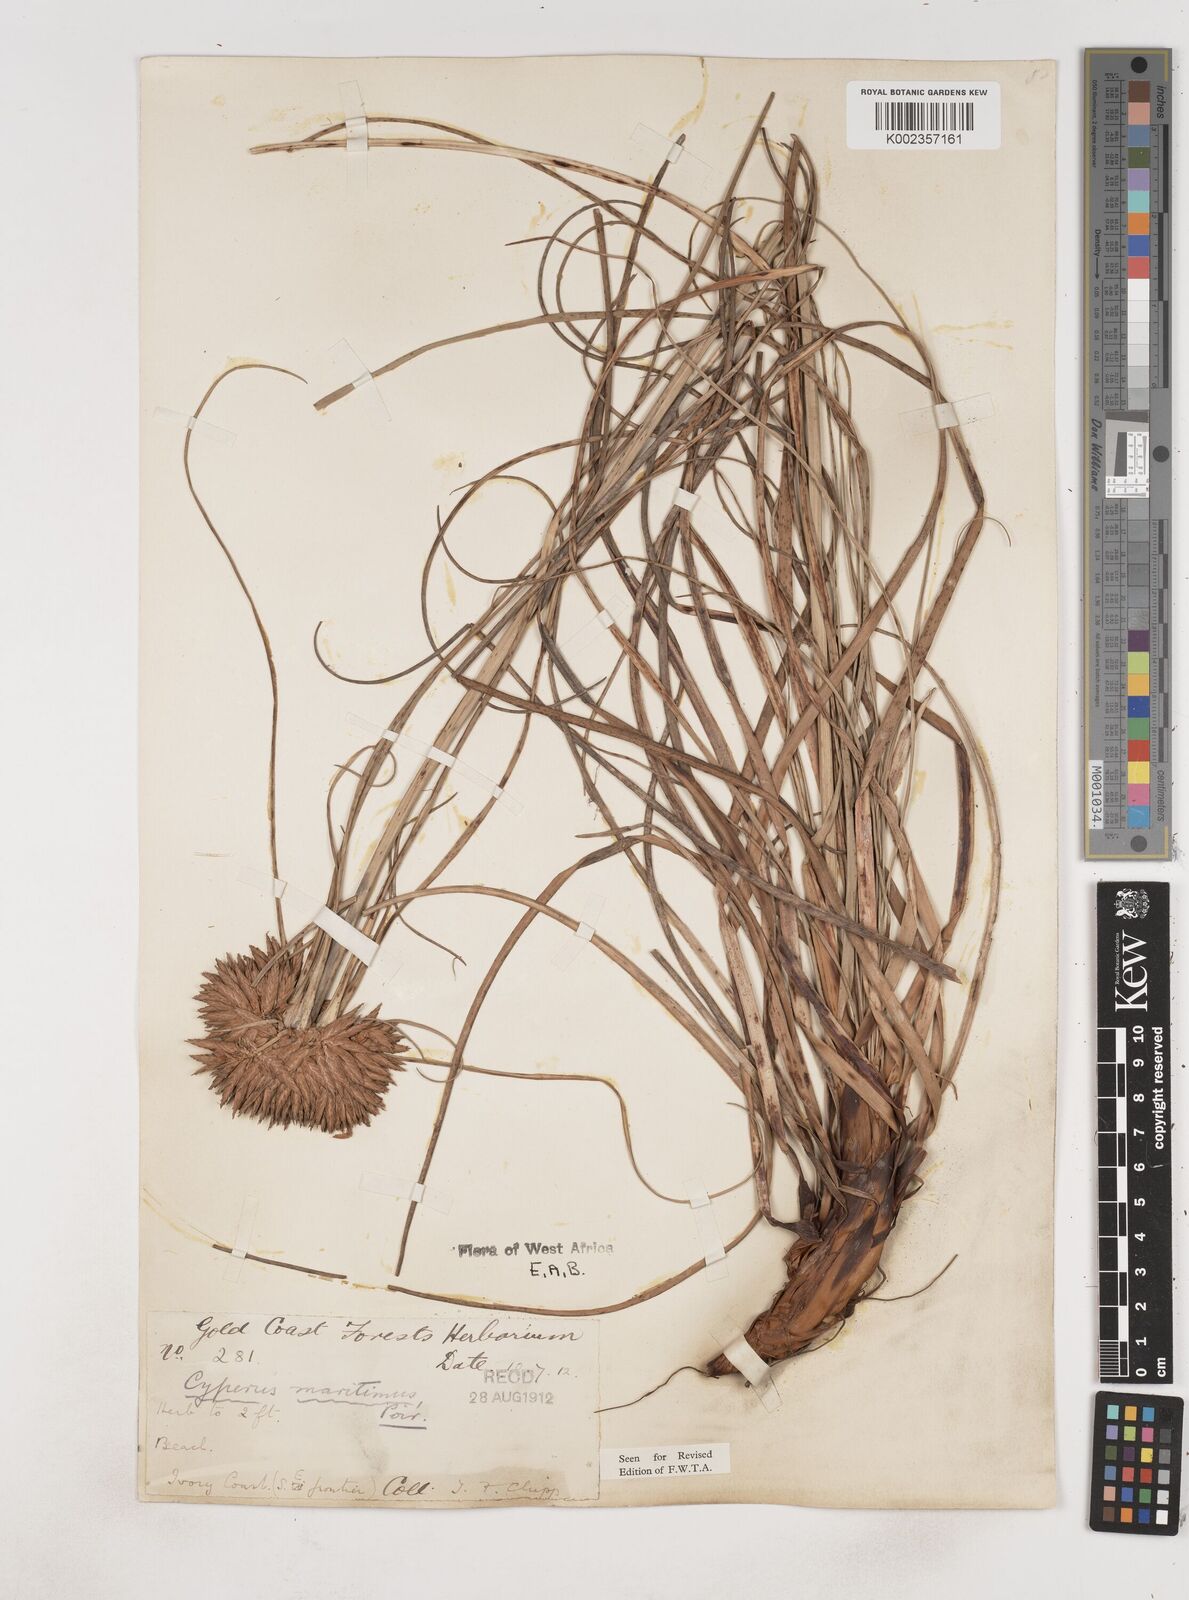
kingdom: Plantae
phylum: Tracheophyta
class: Liliopsida
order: Poales
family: Cyperaceae
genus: Cyperus
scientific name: Cyperus crassipes
